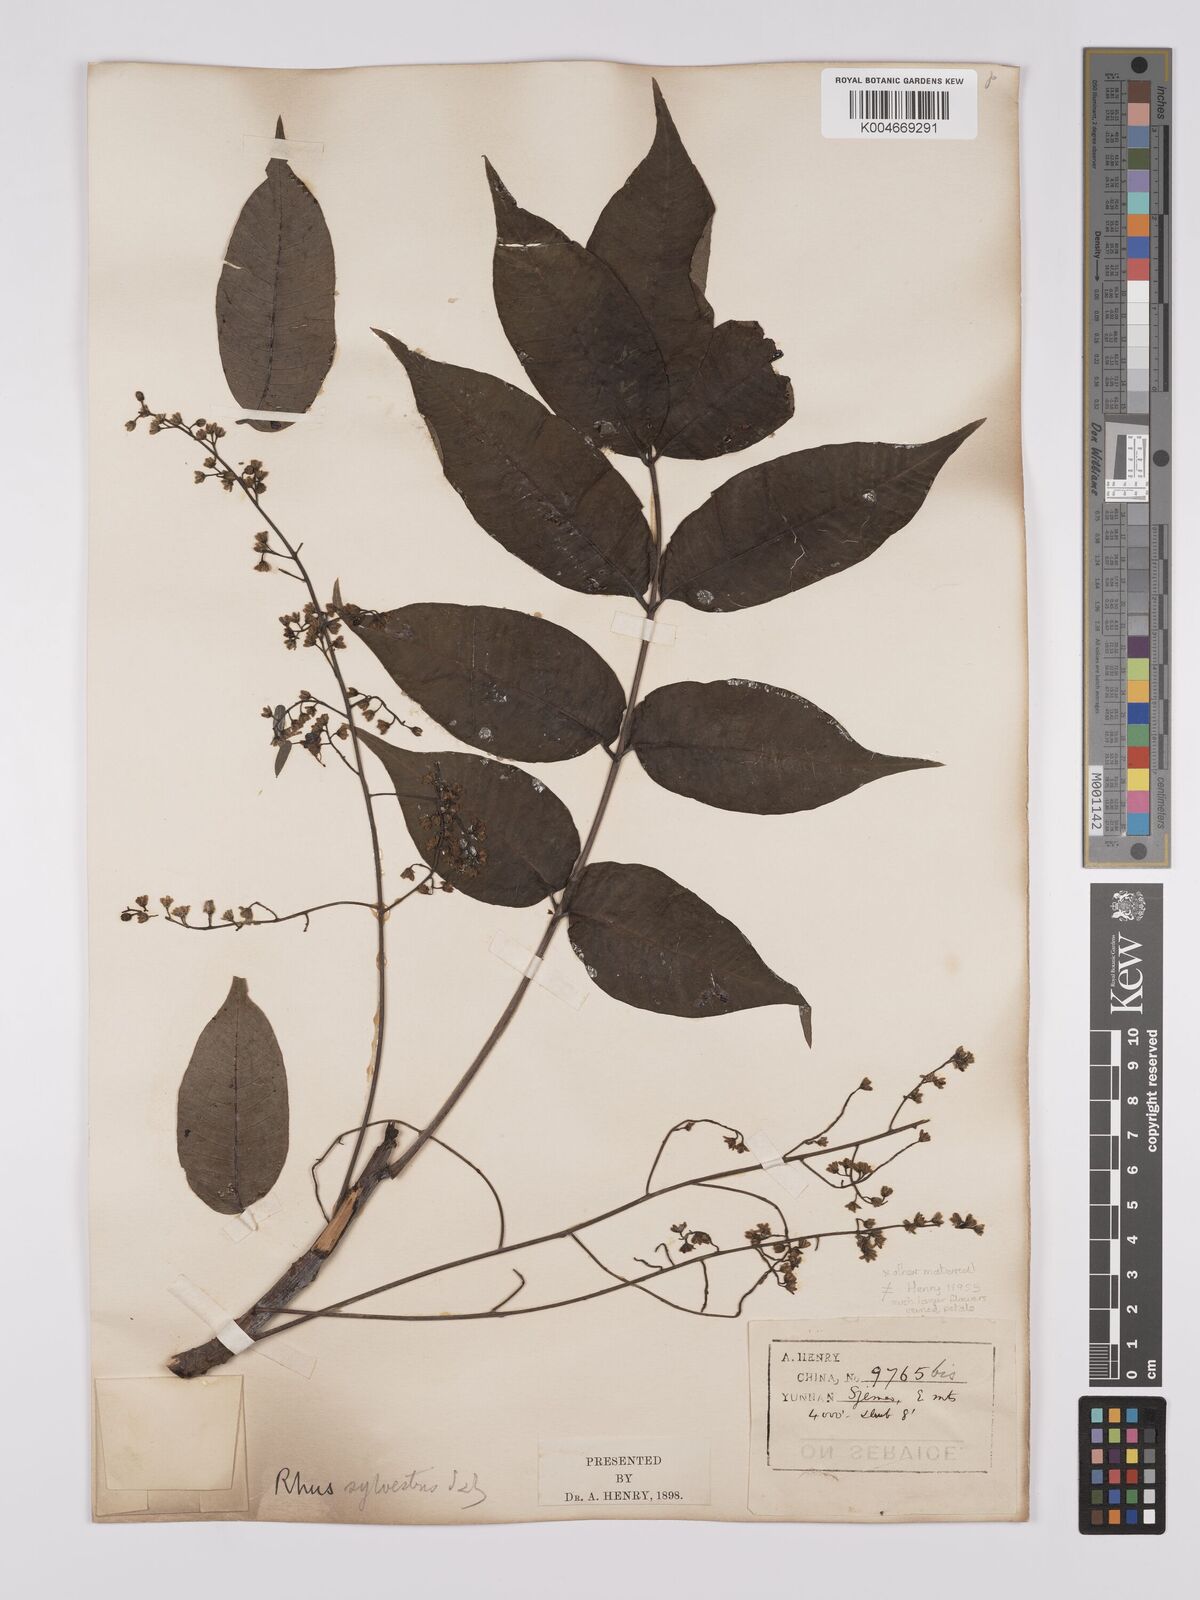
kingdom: Plantae
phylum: Tracheophyta
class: Magnoliopsida
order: Sapindales
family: Anacardiaceae
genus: Toxicodendron
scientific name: Toxicodendron succedaneum
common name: Wax tree
